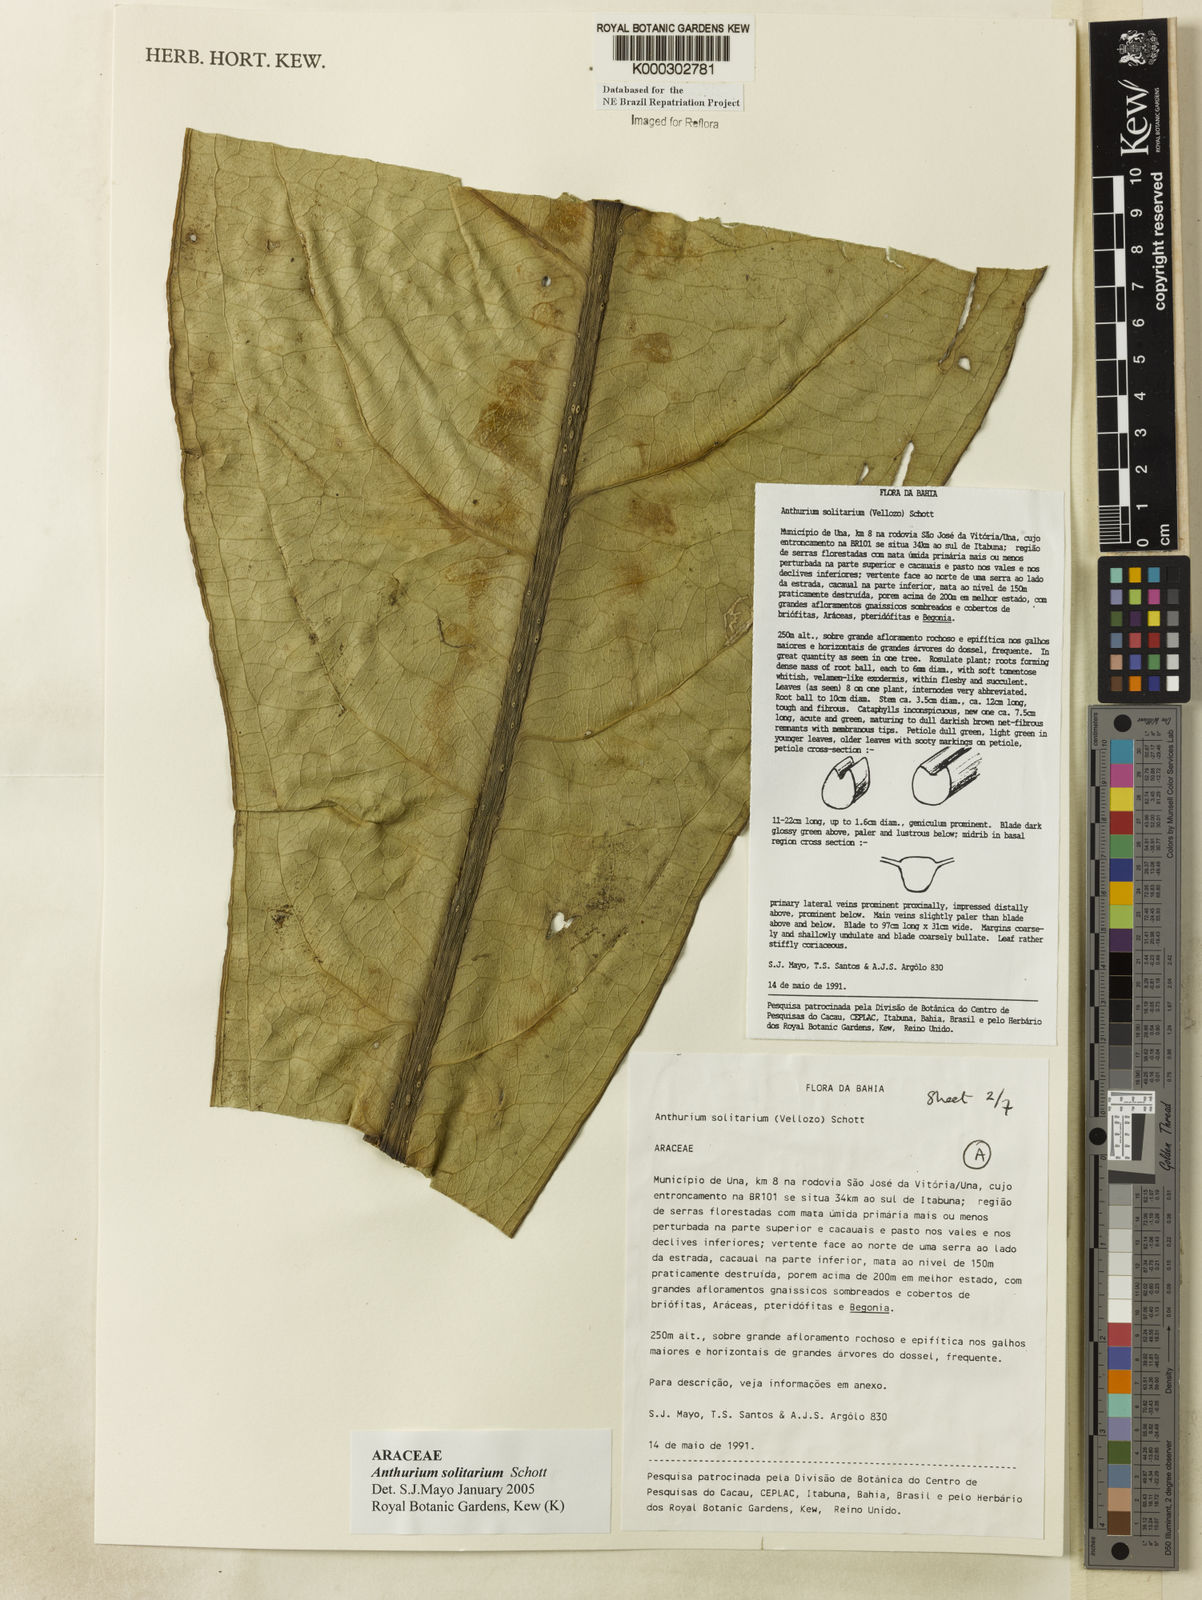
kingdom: Plantae
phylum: Tracheophyta
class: Liliopsida
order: Alismatales
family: Araceae
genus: Anthurium
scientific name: Anthurium solitarium
